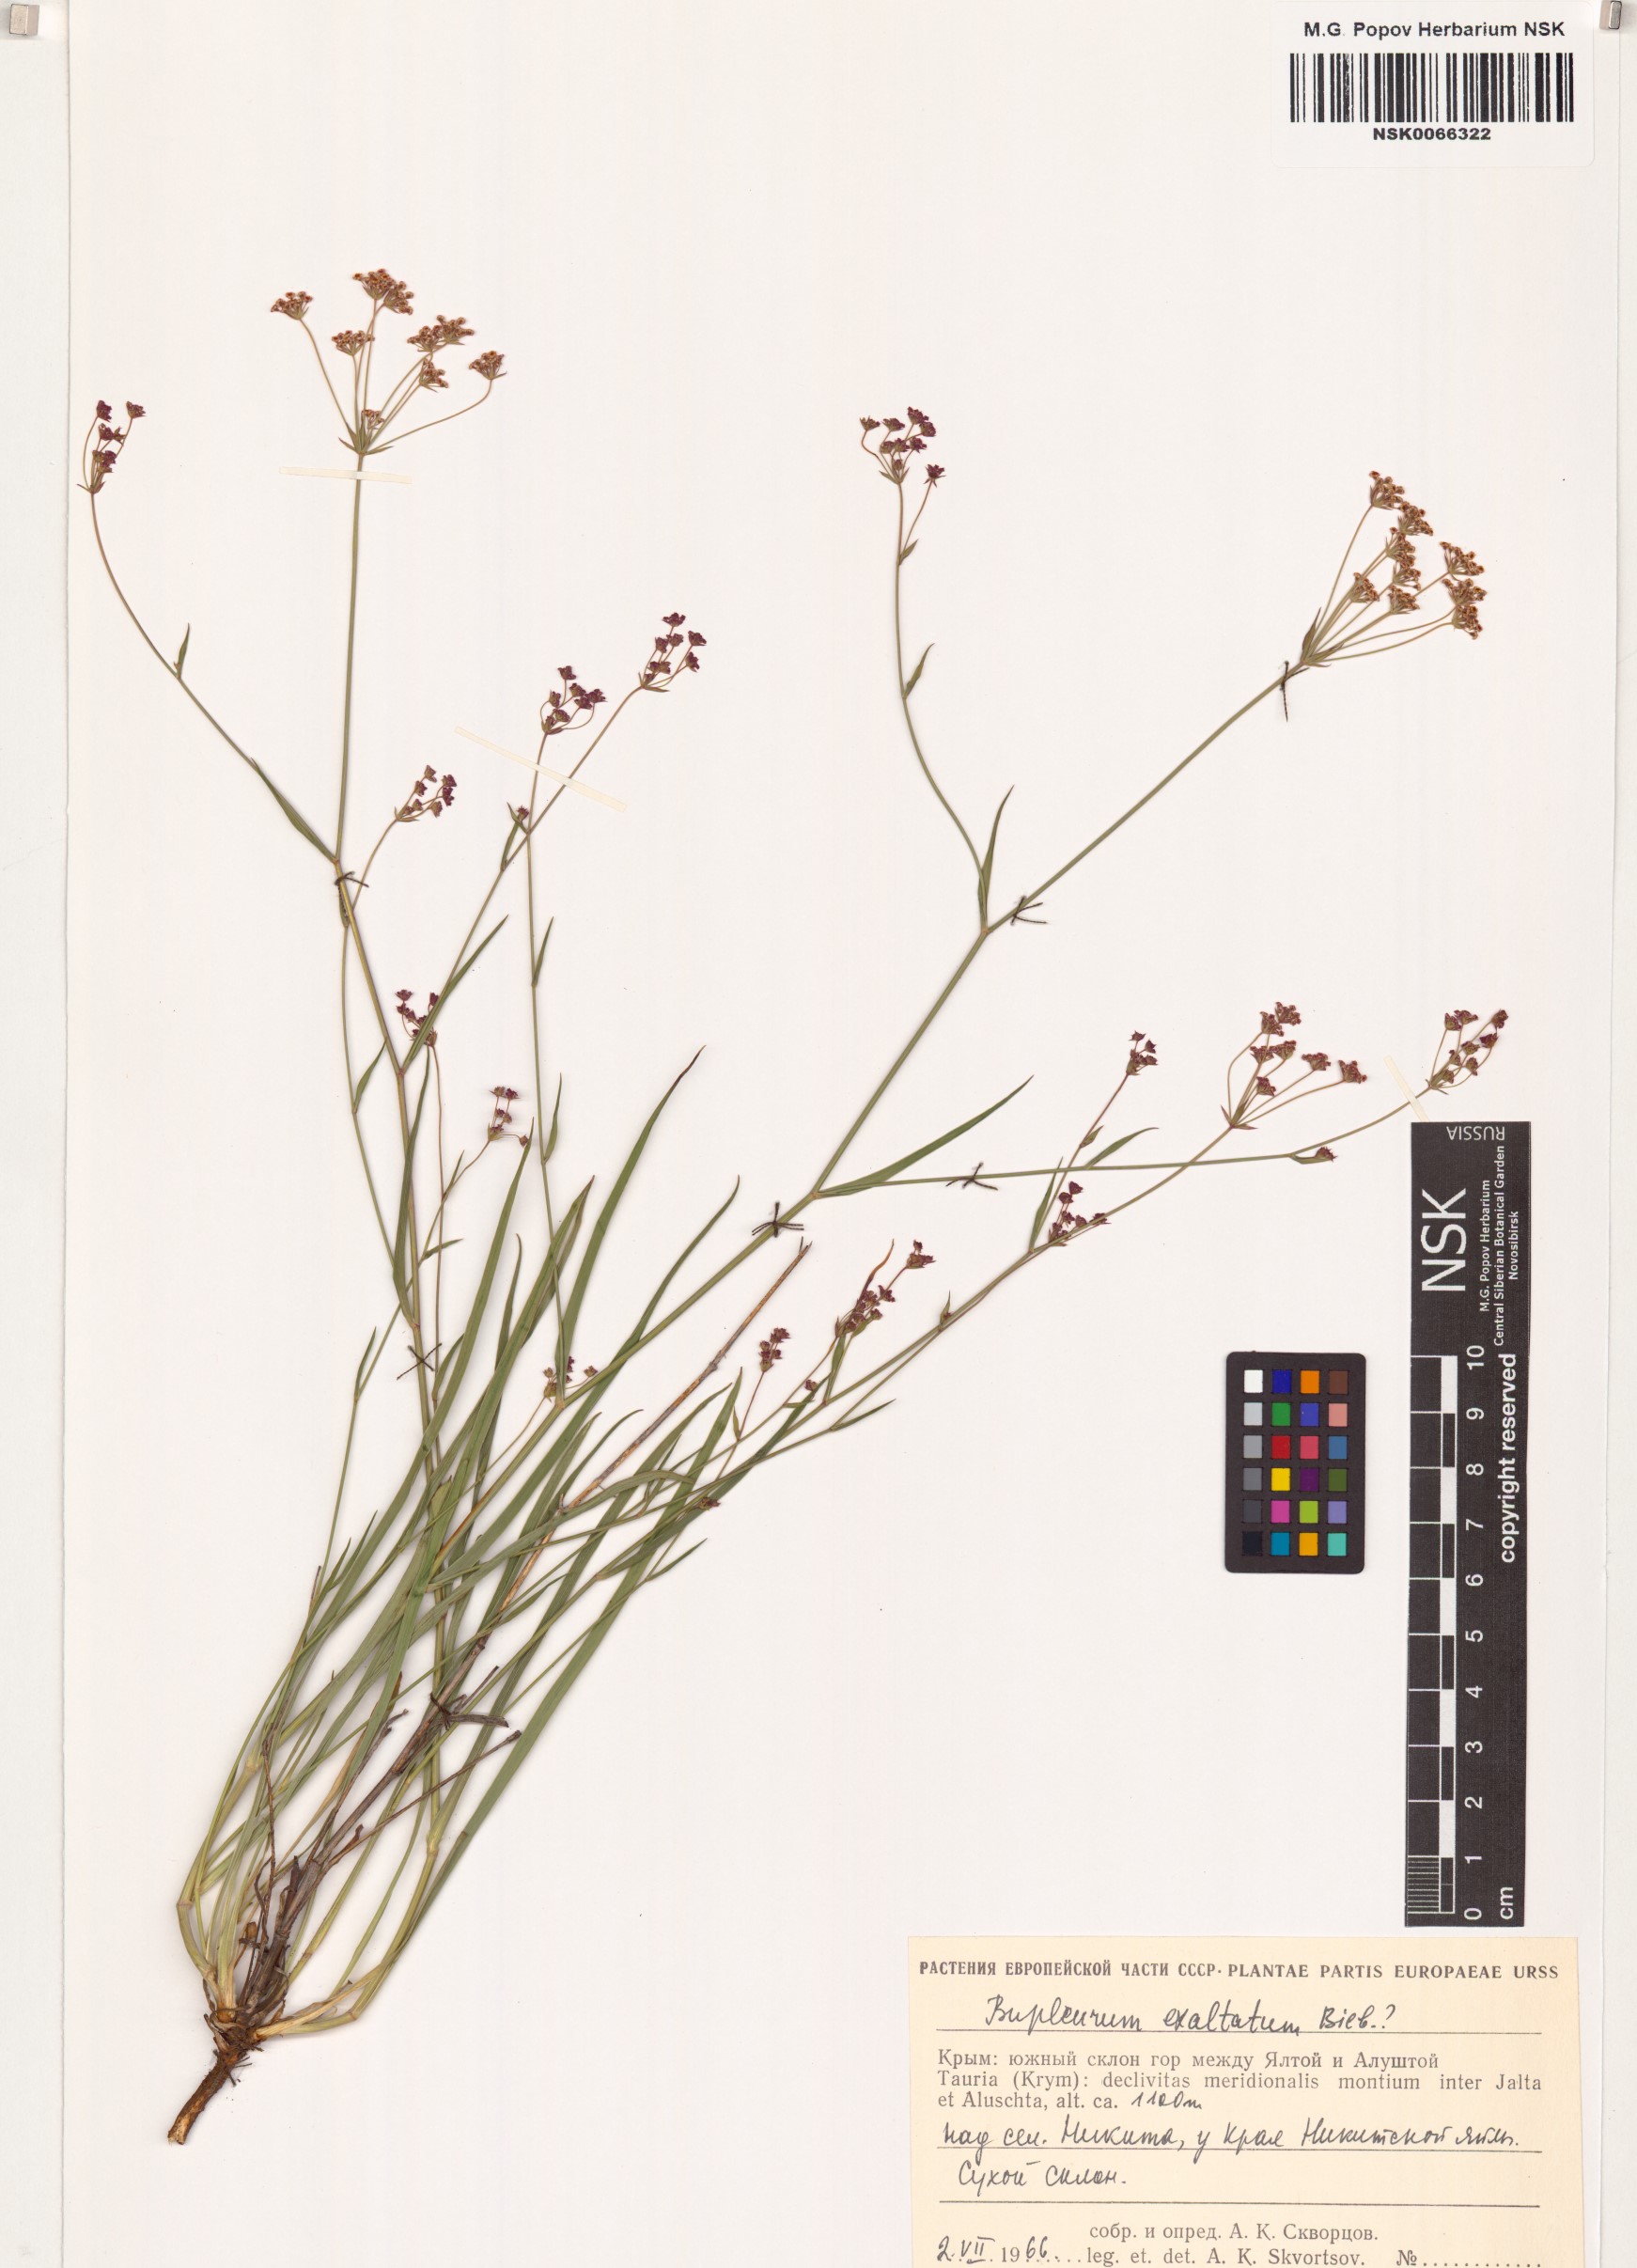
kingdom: Plantae
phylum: Tracheophyta
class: Magnoliopsida
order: Apiales
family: Apiaceae
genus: Bupleurum
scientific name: Bupleurum exaltatum
